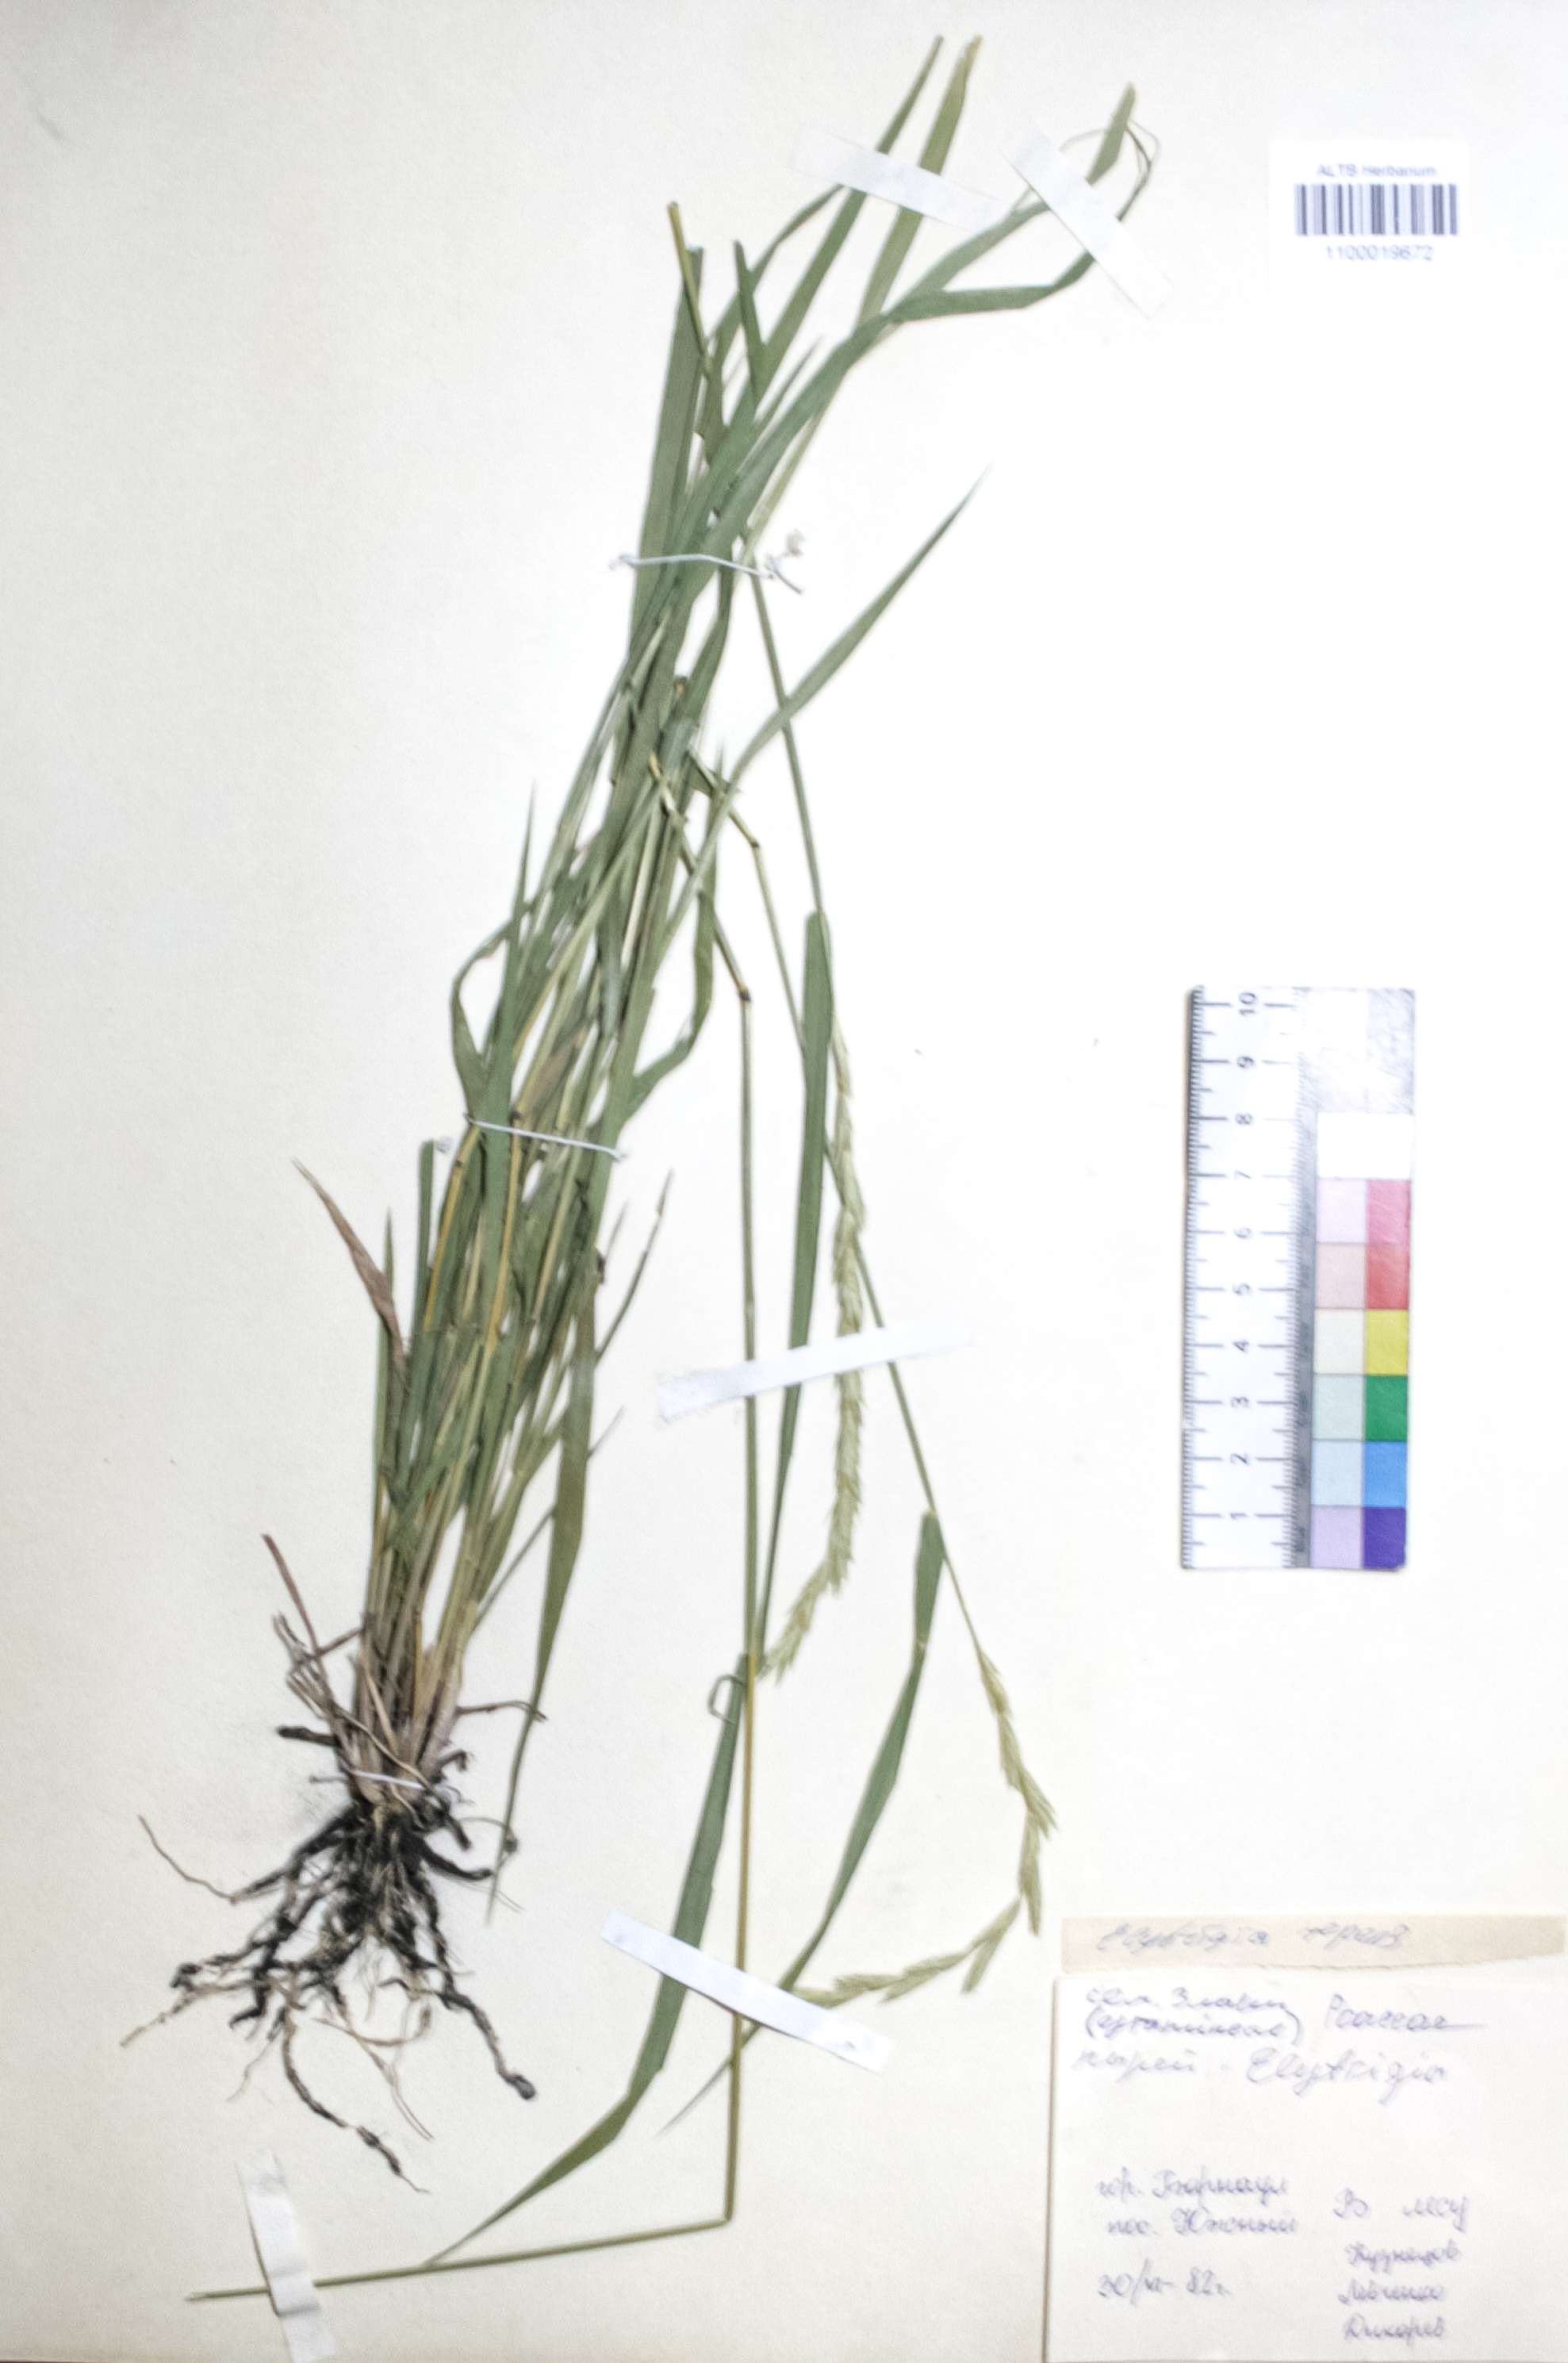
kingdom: Plantae
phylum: Tracheophyta
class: Liliopsida
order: Poales
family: Poaceae
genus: Elymus
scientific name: Elymus repens
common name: Quackgrass
